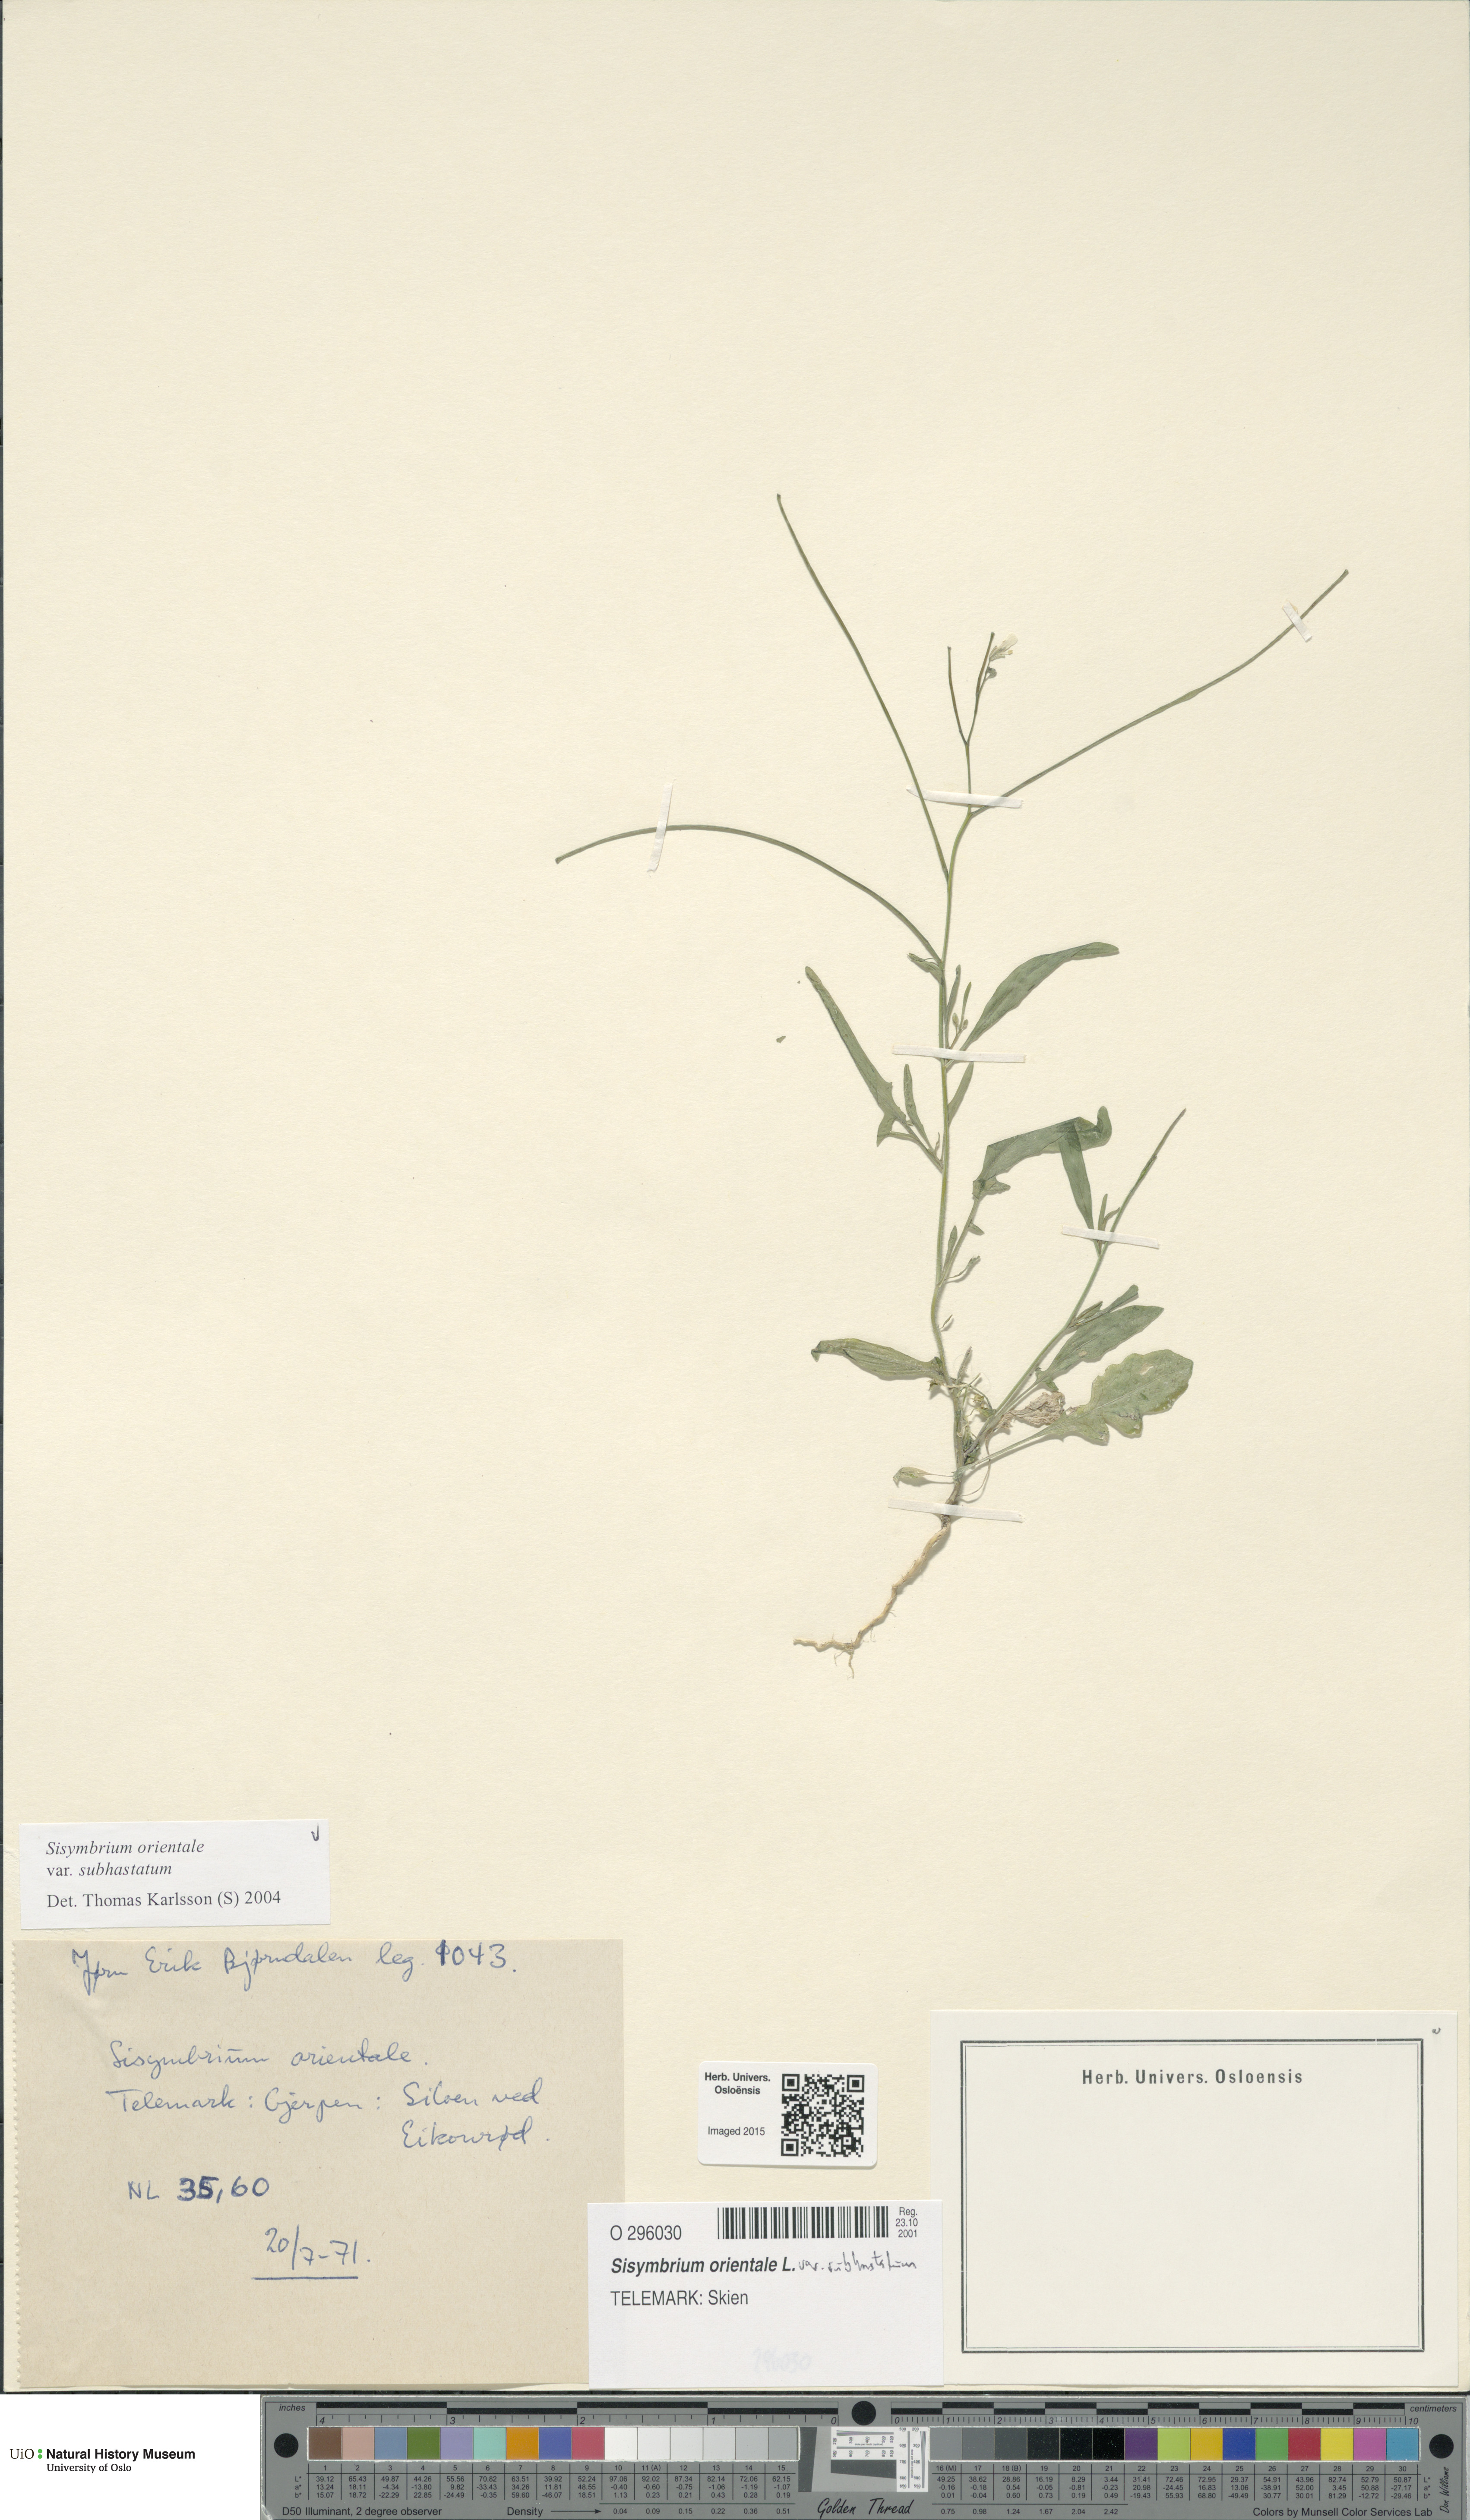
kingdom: Plantae
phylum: Tracheophyta
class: Magnoliopsida
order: Brassicales
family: Brassicaceae
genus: Sisymbrium
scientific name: Sisymbrium orientale
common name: Eastern rocket
